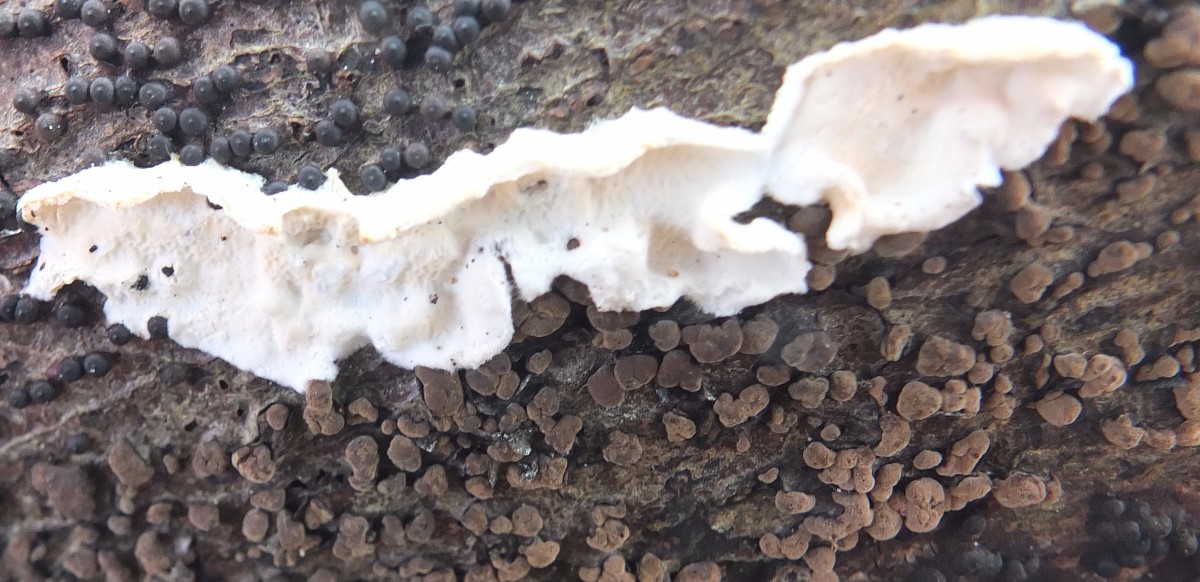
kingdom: Fungi
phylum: Basidiomycota
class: Agaricomycetes
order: Polyporales
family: Irpicaceae
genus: Byssomerulius
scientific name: Byssomerulius corium
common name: læder-åresvamp
